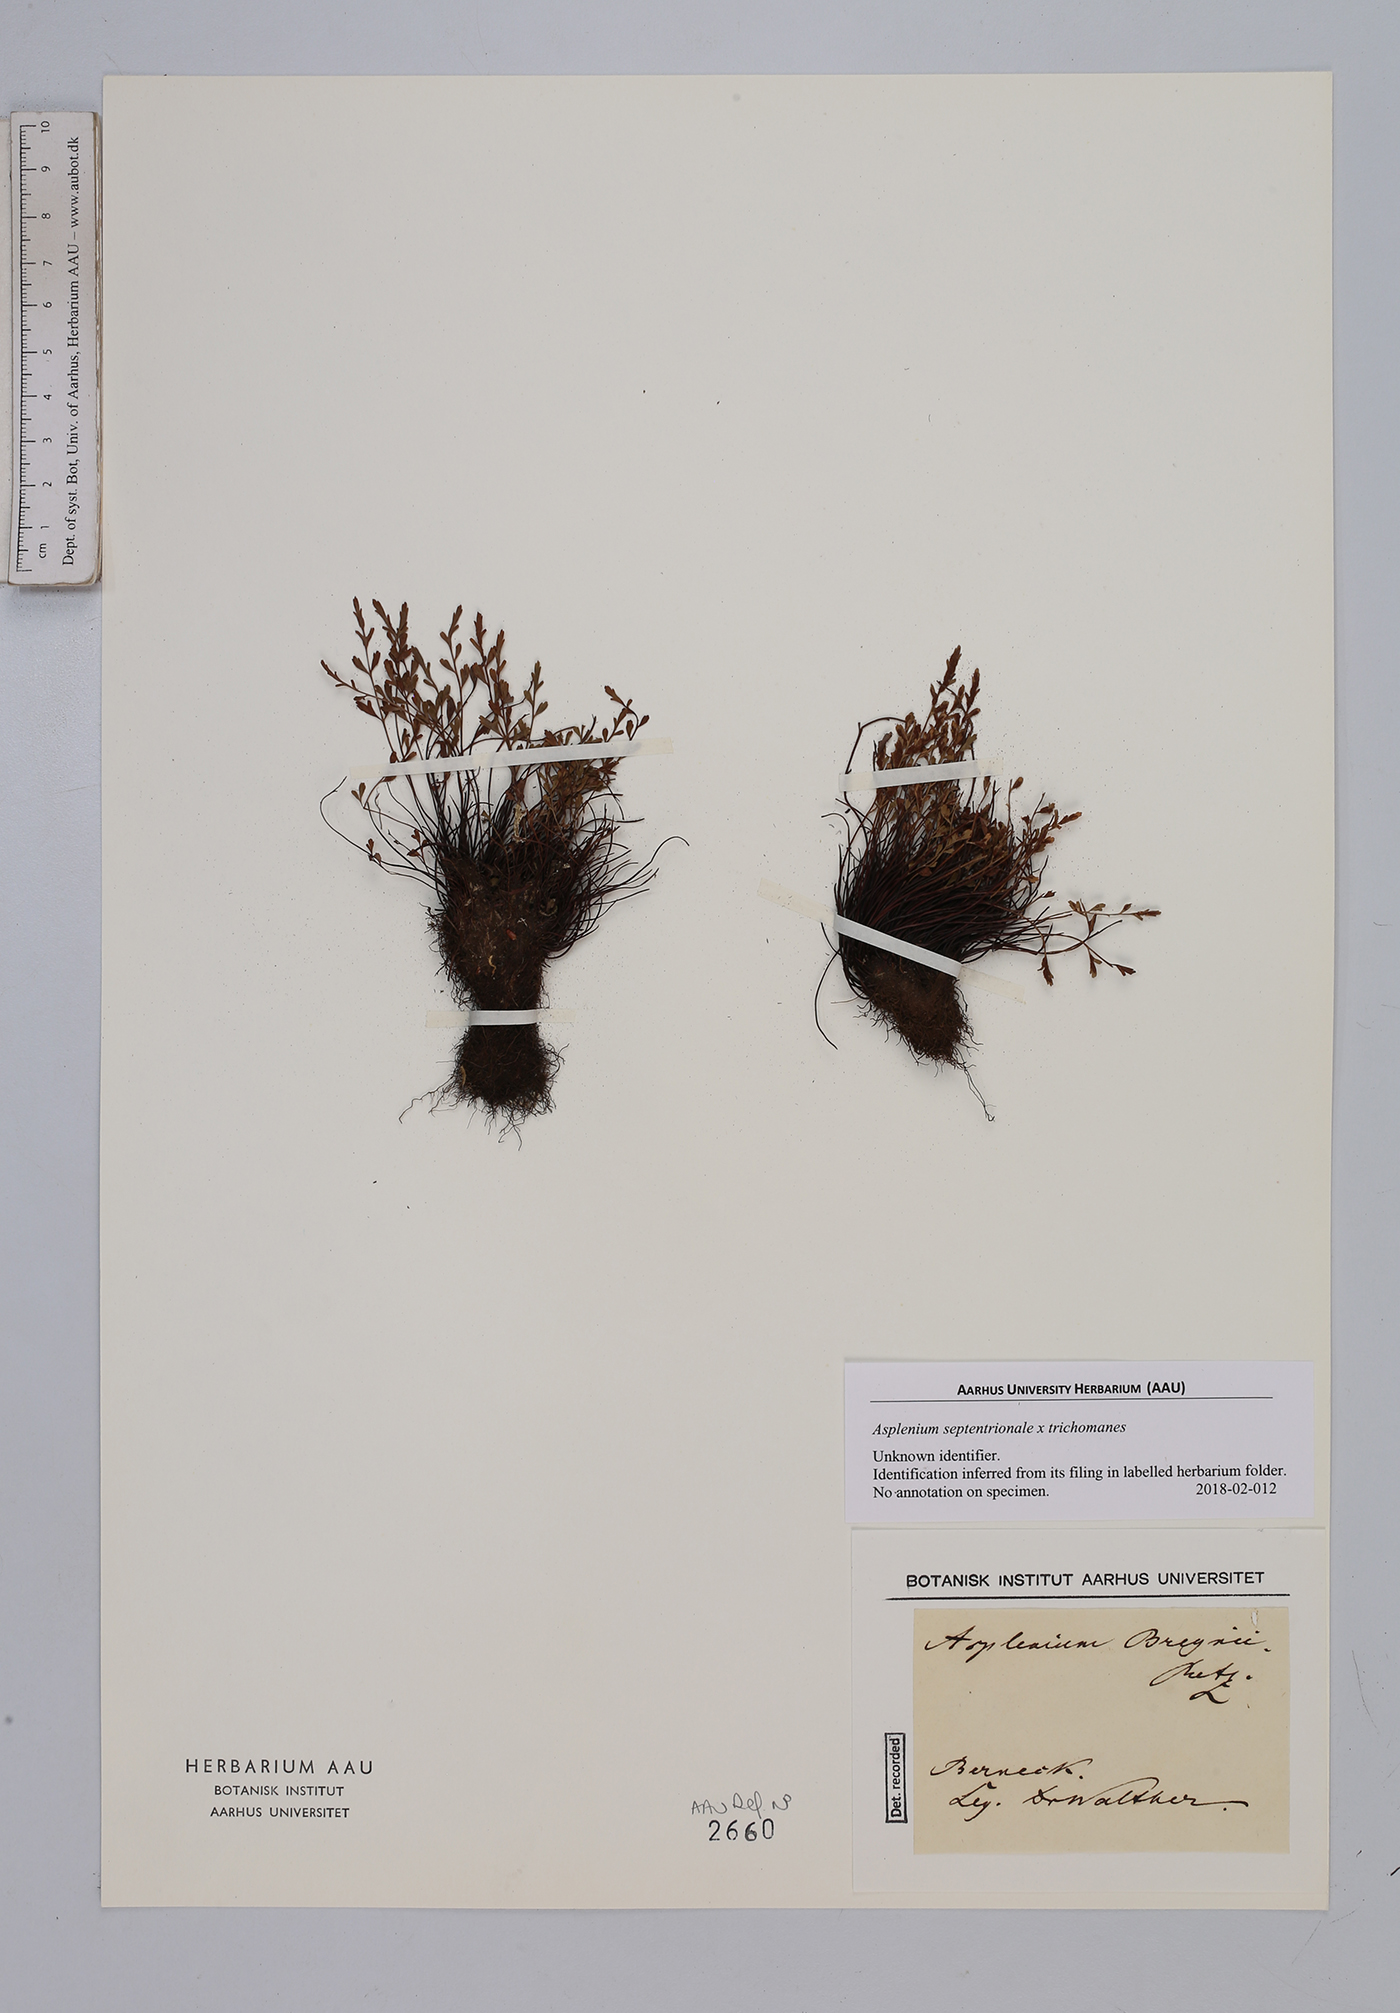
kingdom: Plantae
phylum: Tracheophyta
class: Polypodiopsida
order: Polypodiales
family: Aspleniaceae
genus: Asplenium
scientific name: Asplenium
